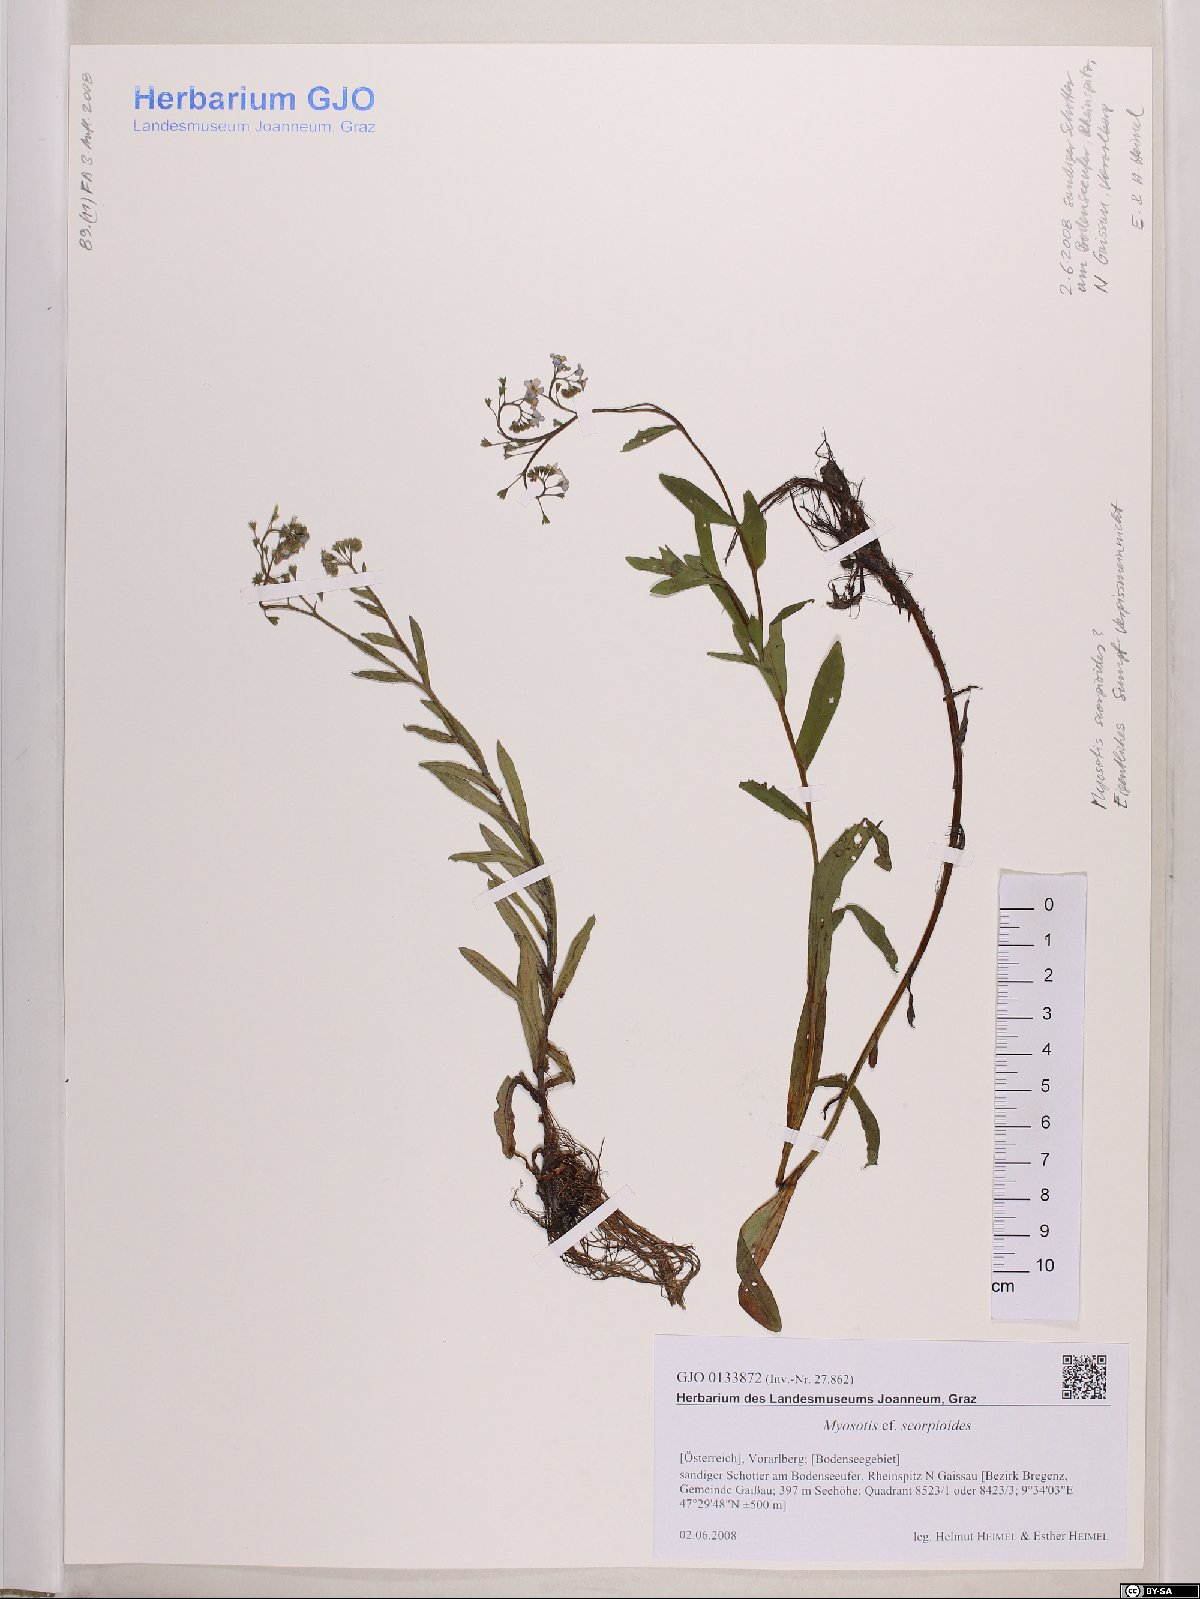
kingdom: Plantae
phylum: Tracheophyta
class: Magnoliopsida
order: Boraginales
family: Boraginaceae
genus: Myosotis
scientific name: Myosotis scorpioides
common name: Water forget-me-not
